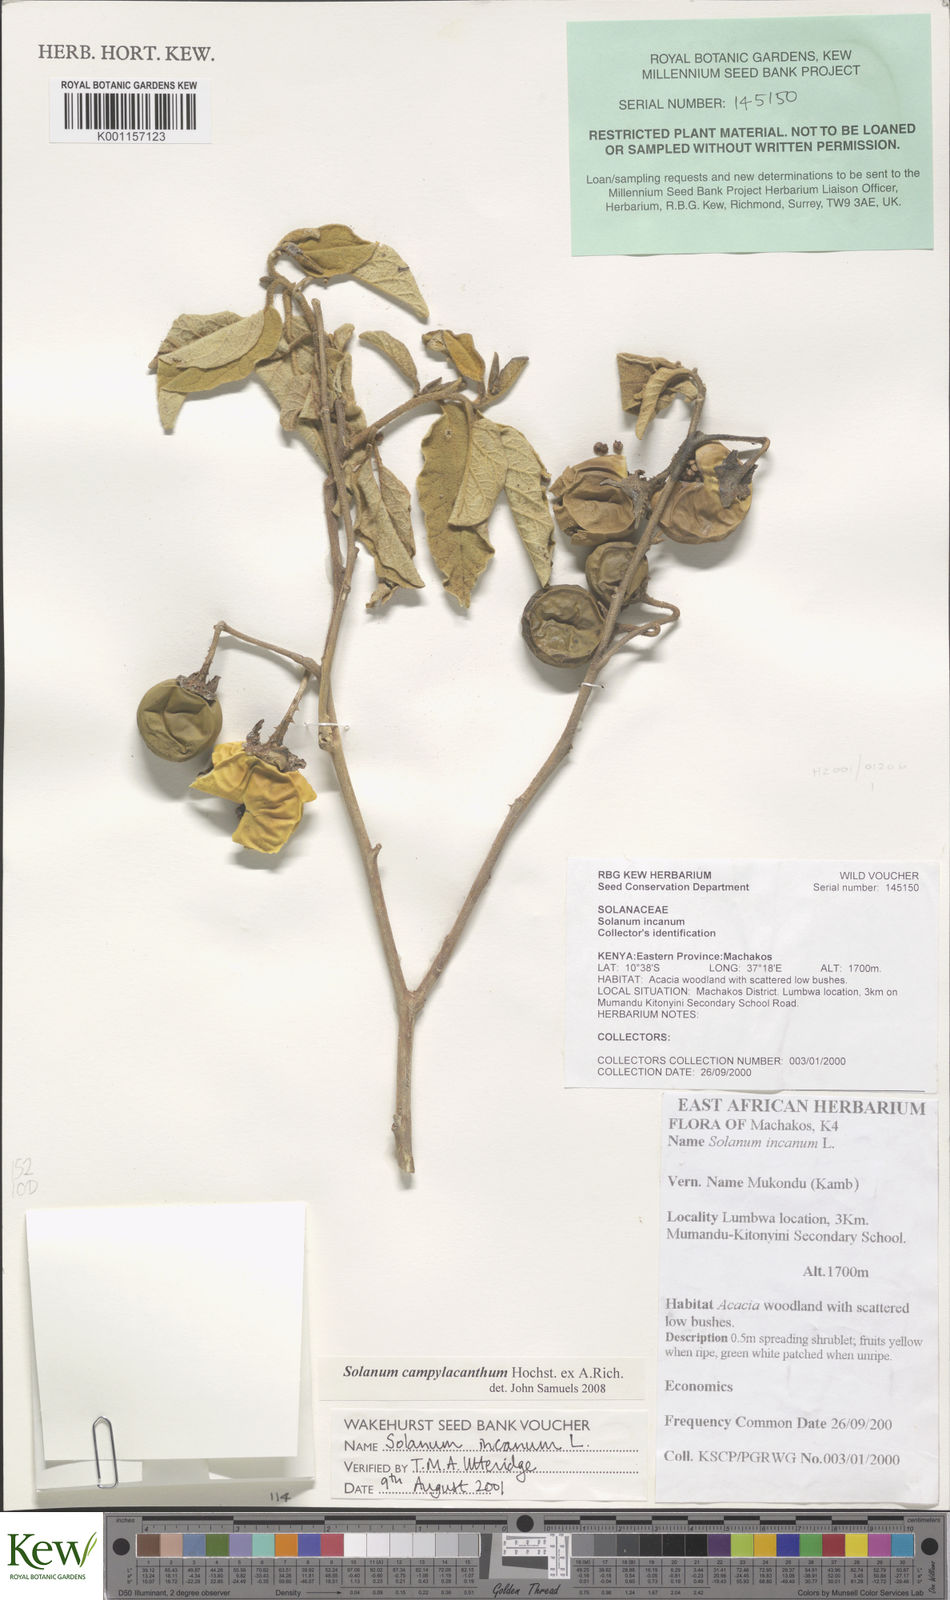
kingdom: Plantae
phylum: Tracheophyta
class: Magnoliopsida
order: Solanales
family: Solanaceae
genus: Solanum
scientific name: Solanum campylacanthum
